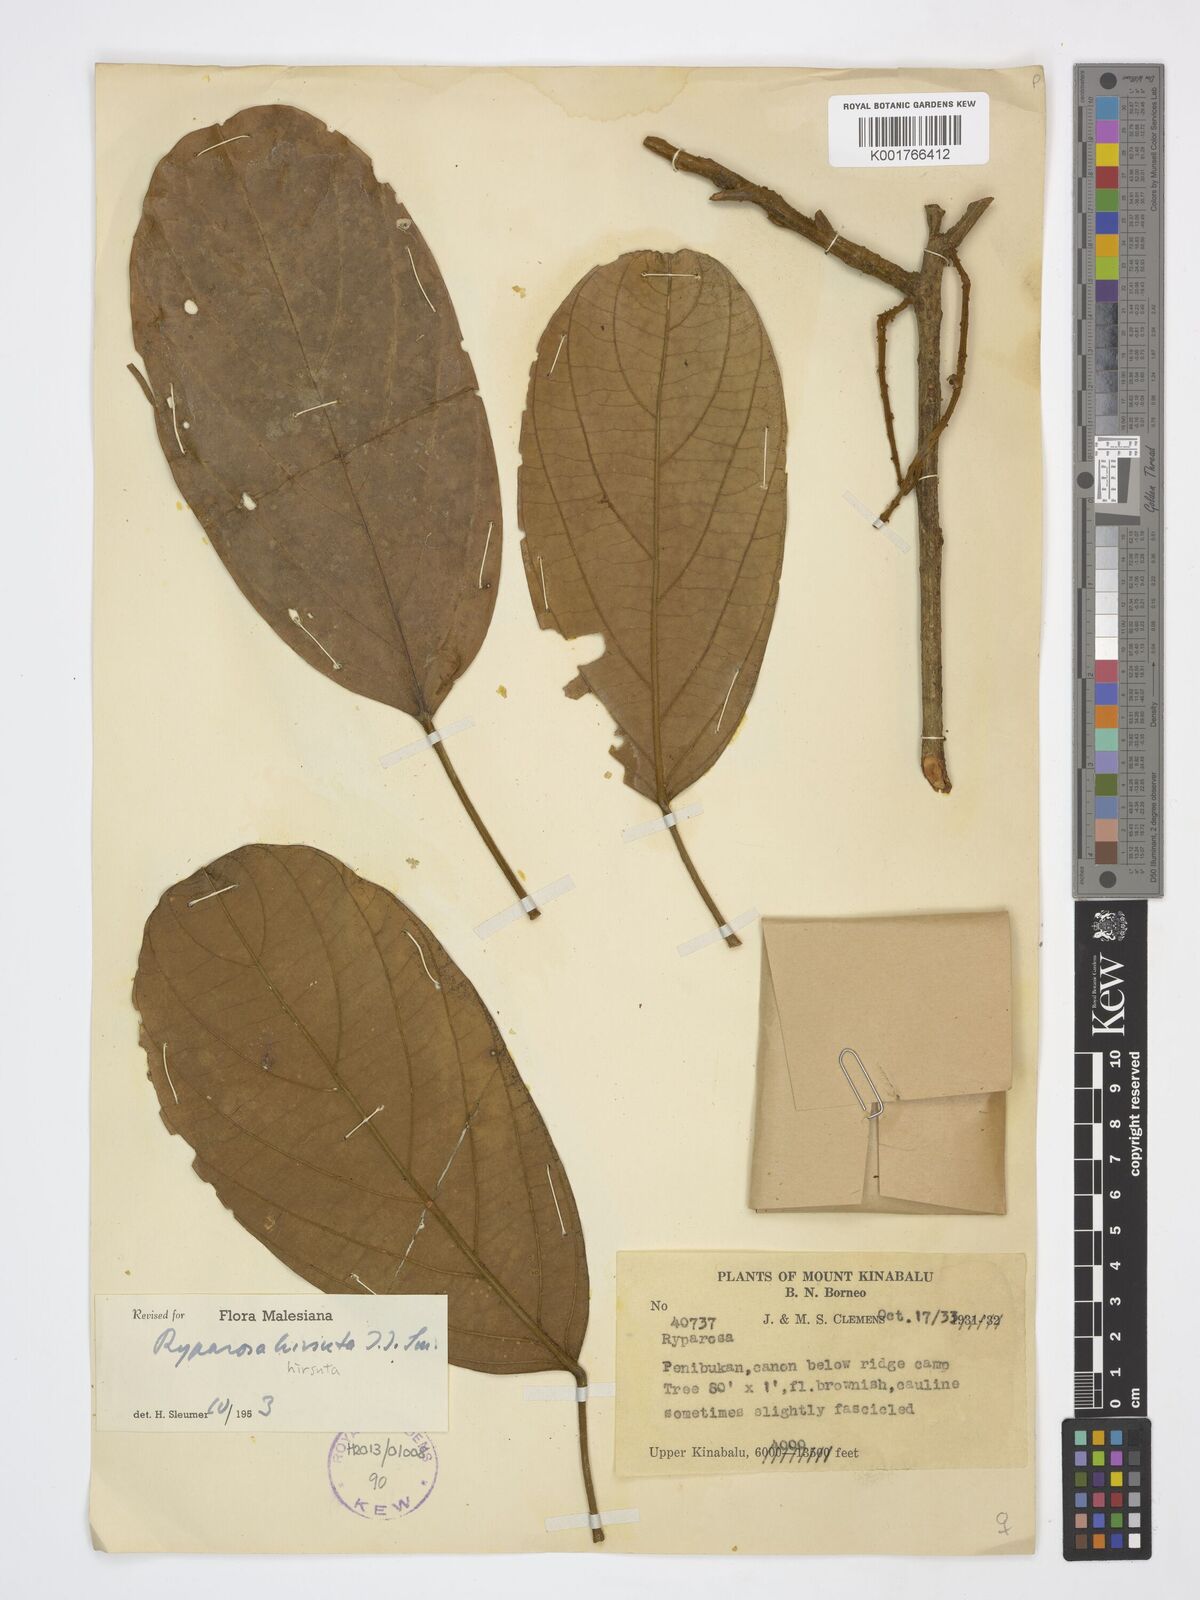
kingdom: Plantae
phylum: Tracheophyta
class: Magnoliopsida
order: Malpighiales
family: Achariaceae
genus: Ryparosa
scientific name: Ryparosa hirsuta
